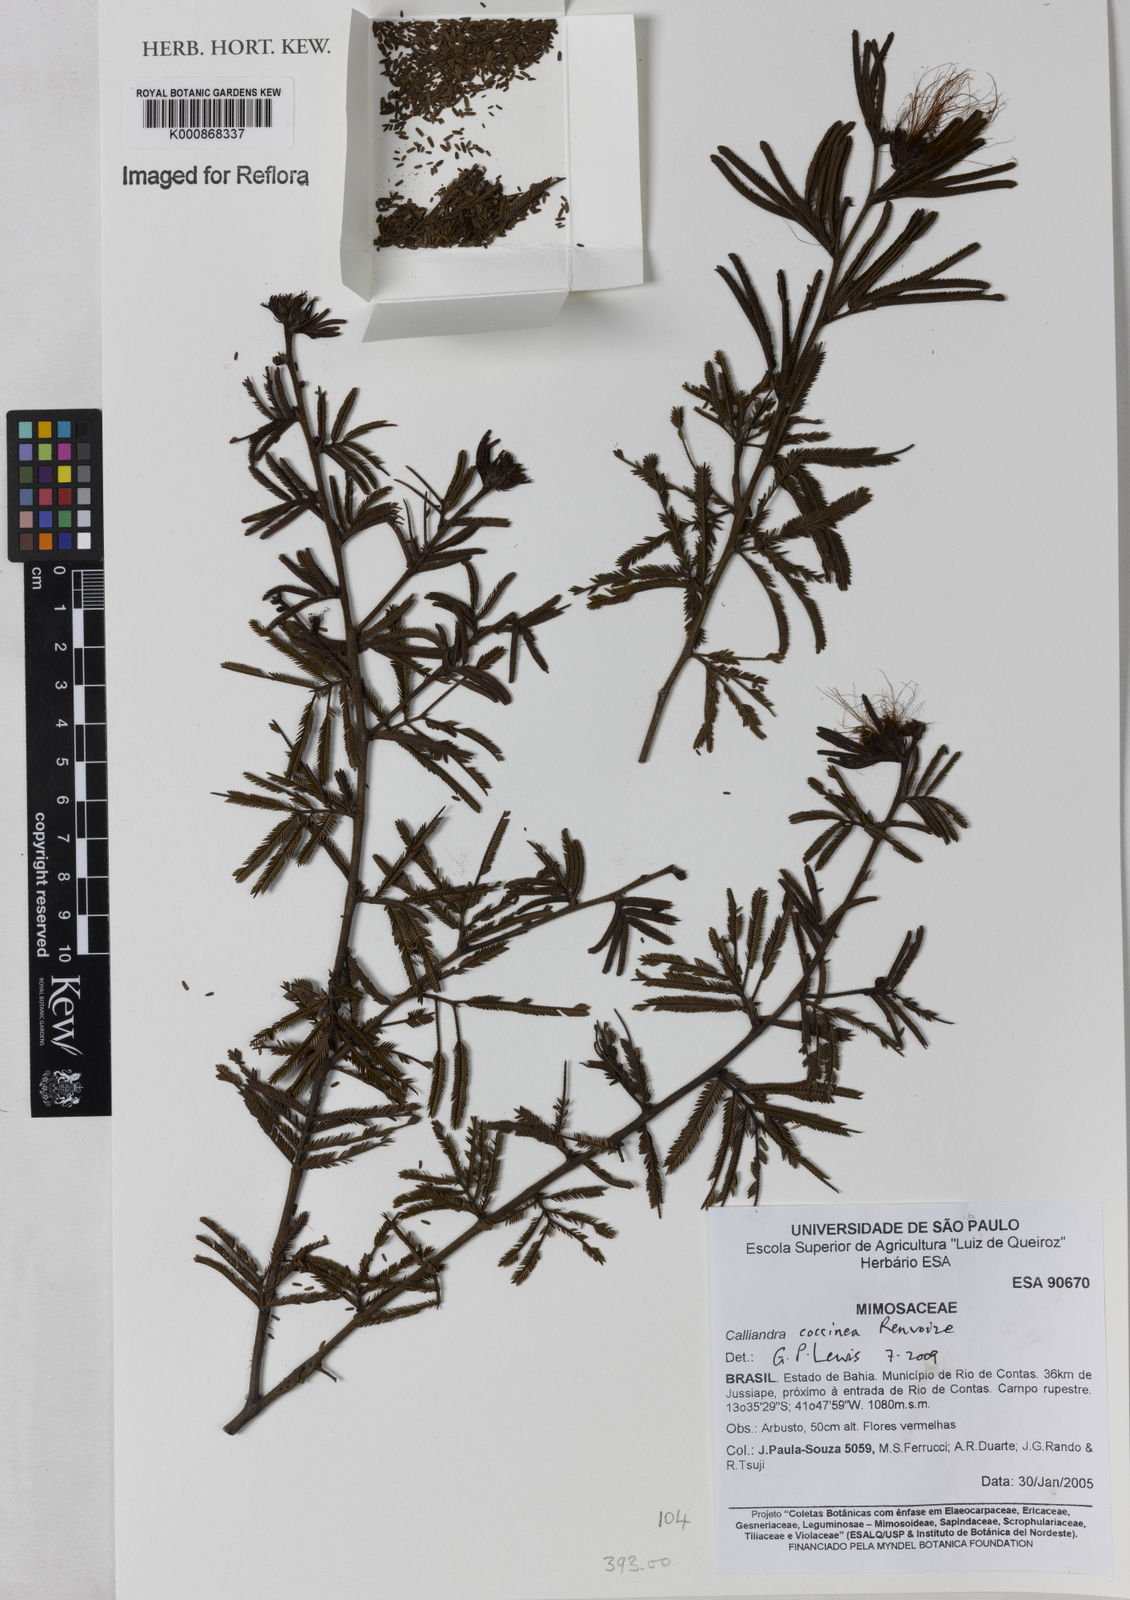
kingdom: Plantae
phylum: Tracheophyta
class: Magnoliopsida
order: Fabales
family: Fabaceae
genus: Calliandra
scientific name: Calliandra coccinea
